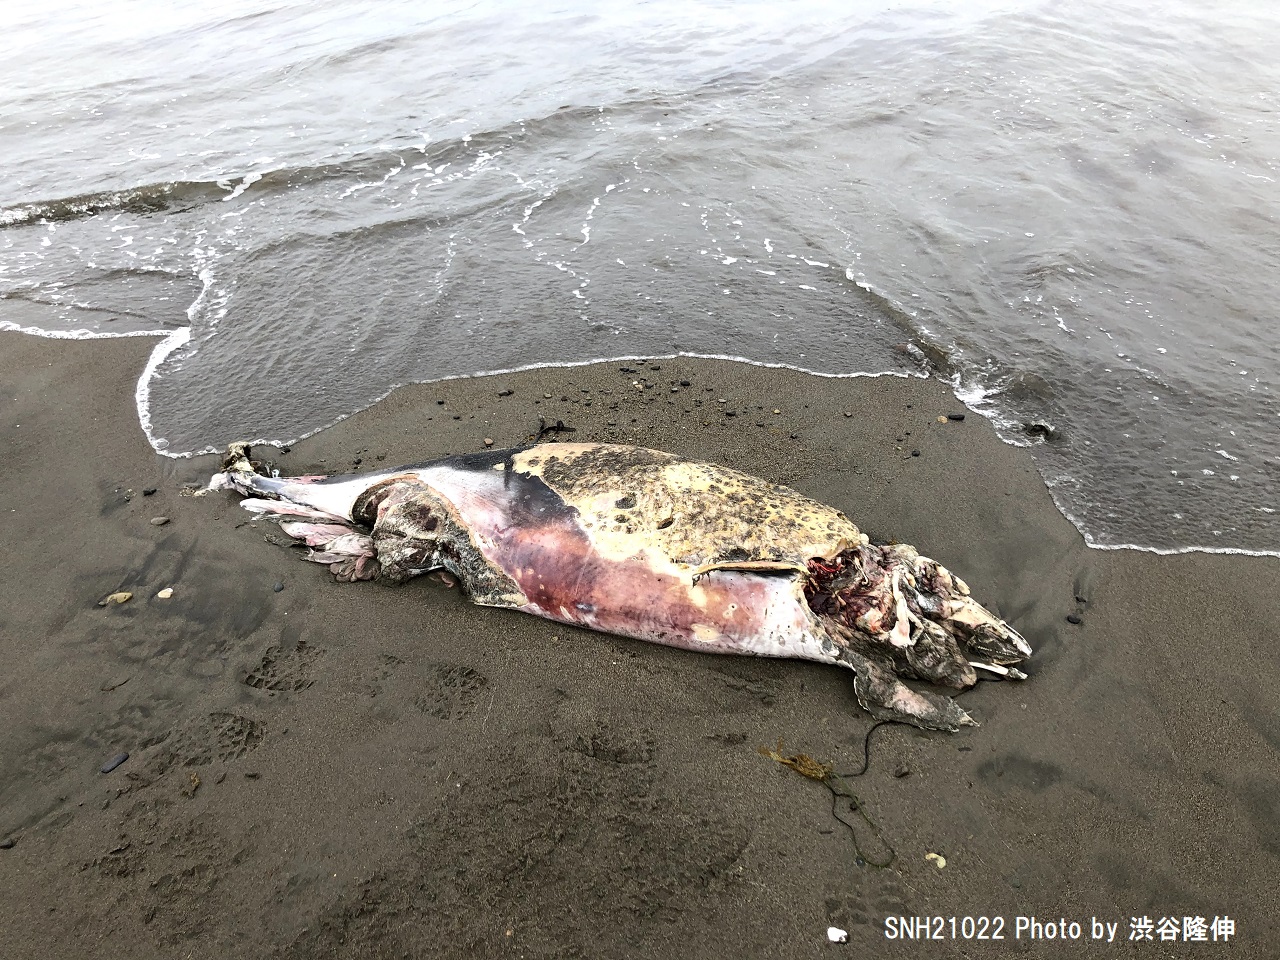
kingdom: Animalia
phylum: Chordata
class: Mammalia
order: Cetacea
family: Phocoenidae
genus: Phocoena
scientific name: Phocoena phocoena
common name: Harbour porpoise
